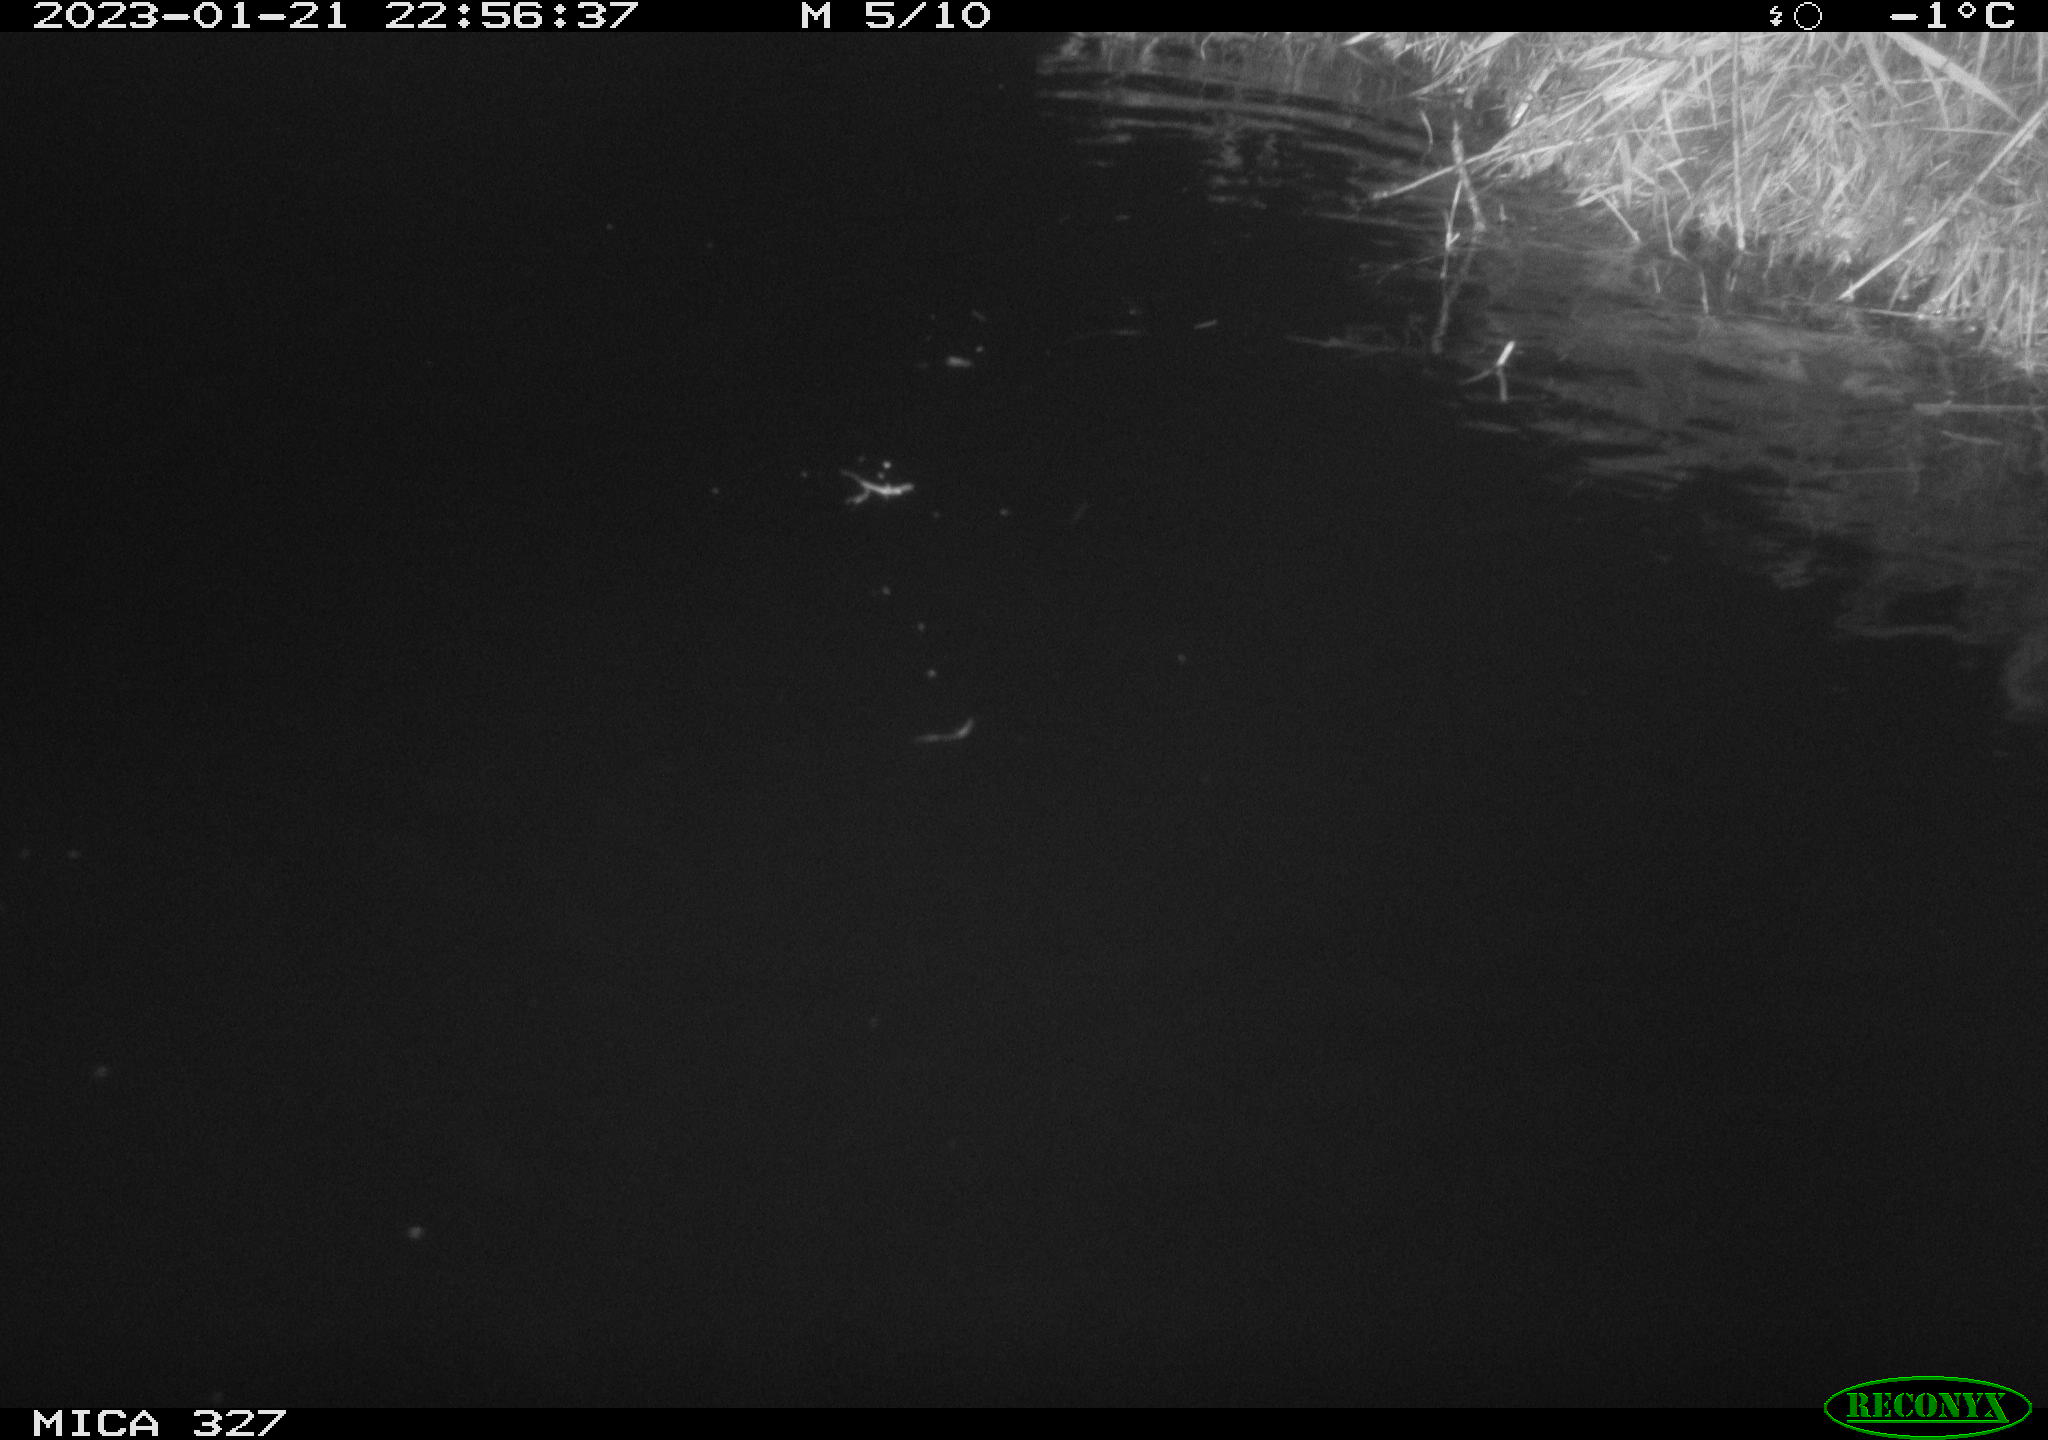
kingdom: Animalia
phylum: Chordata
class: Mammalia
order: Rodentia
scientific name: Rodentia
